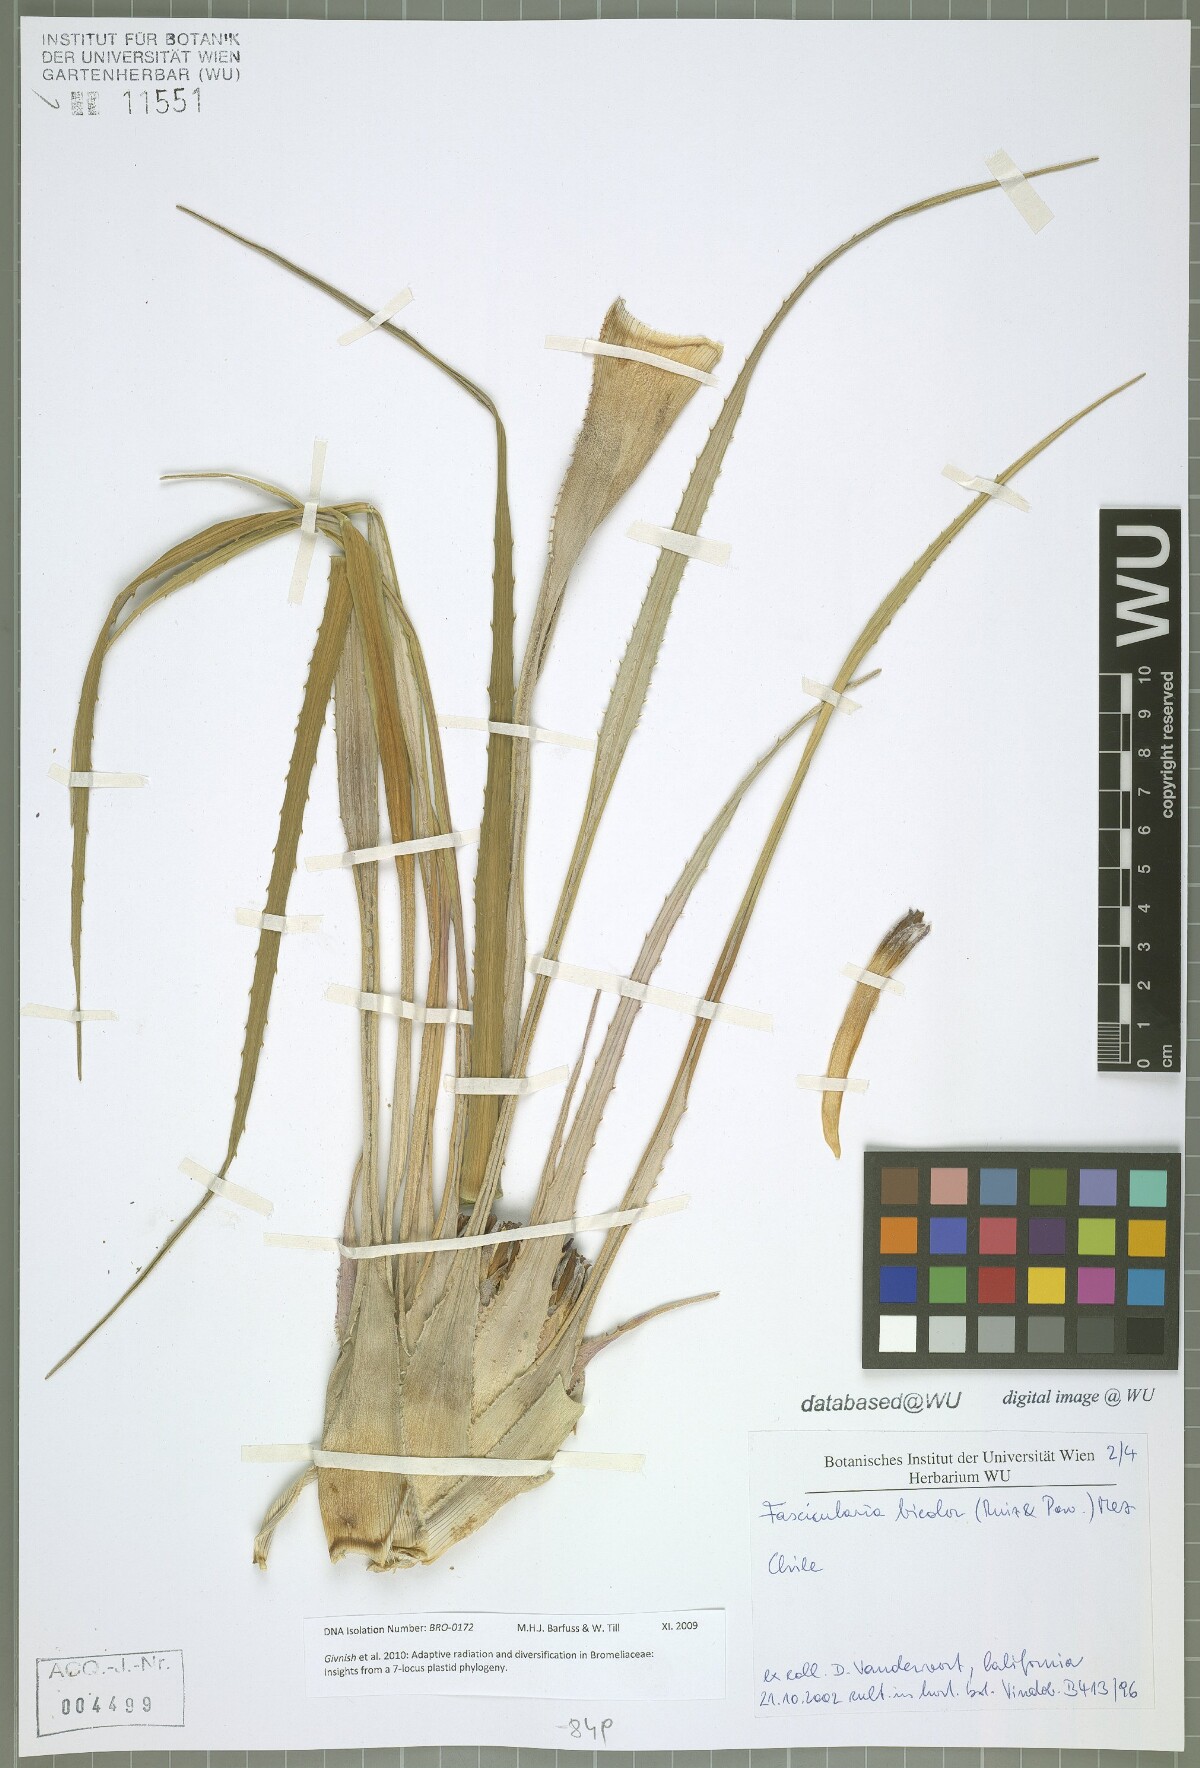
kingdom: Plantae
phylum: Tracheophyta
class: Liliopsida
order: Poales
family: Bromeliaceae
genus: Fascicularia
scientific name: Fascicularia bicolor
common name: Rhodostachys
